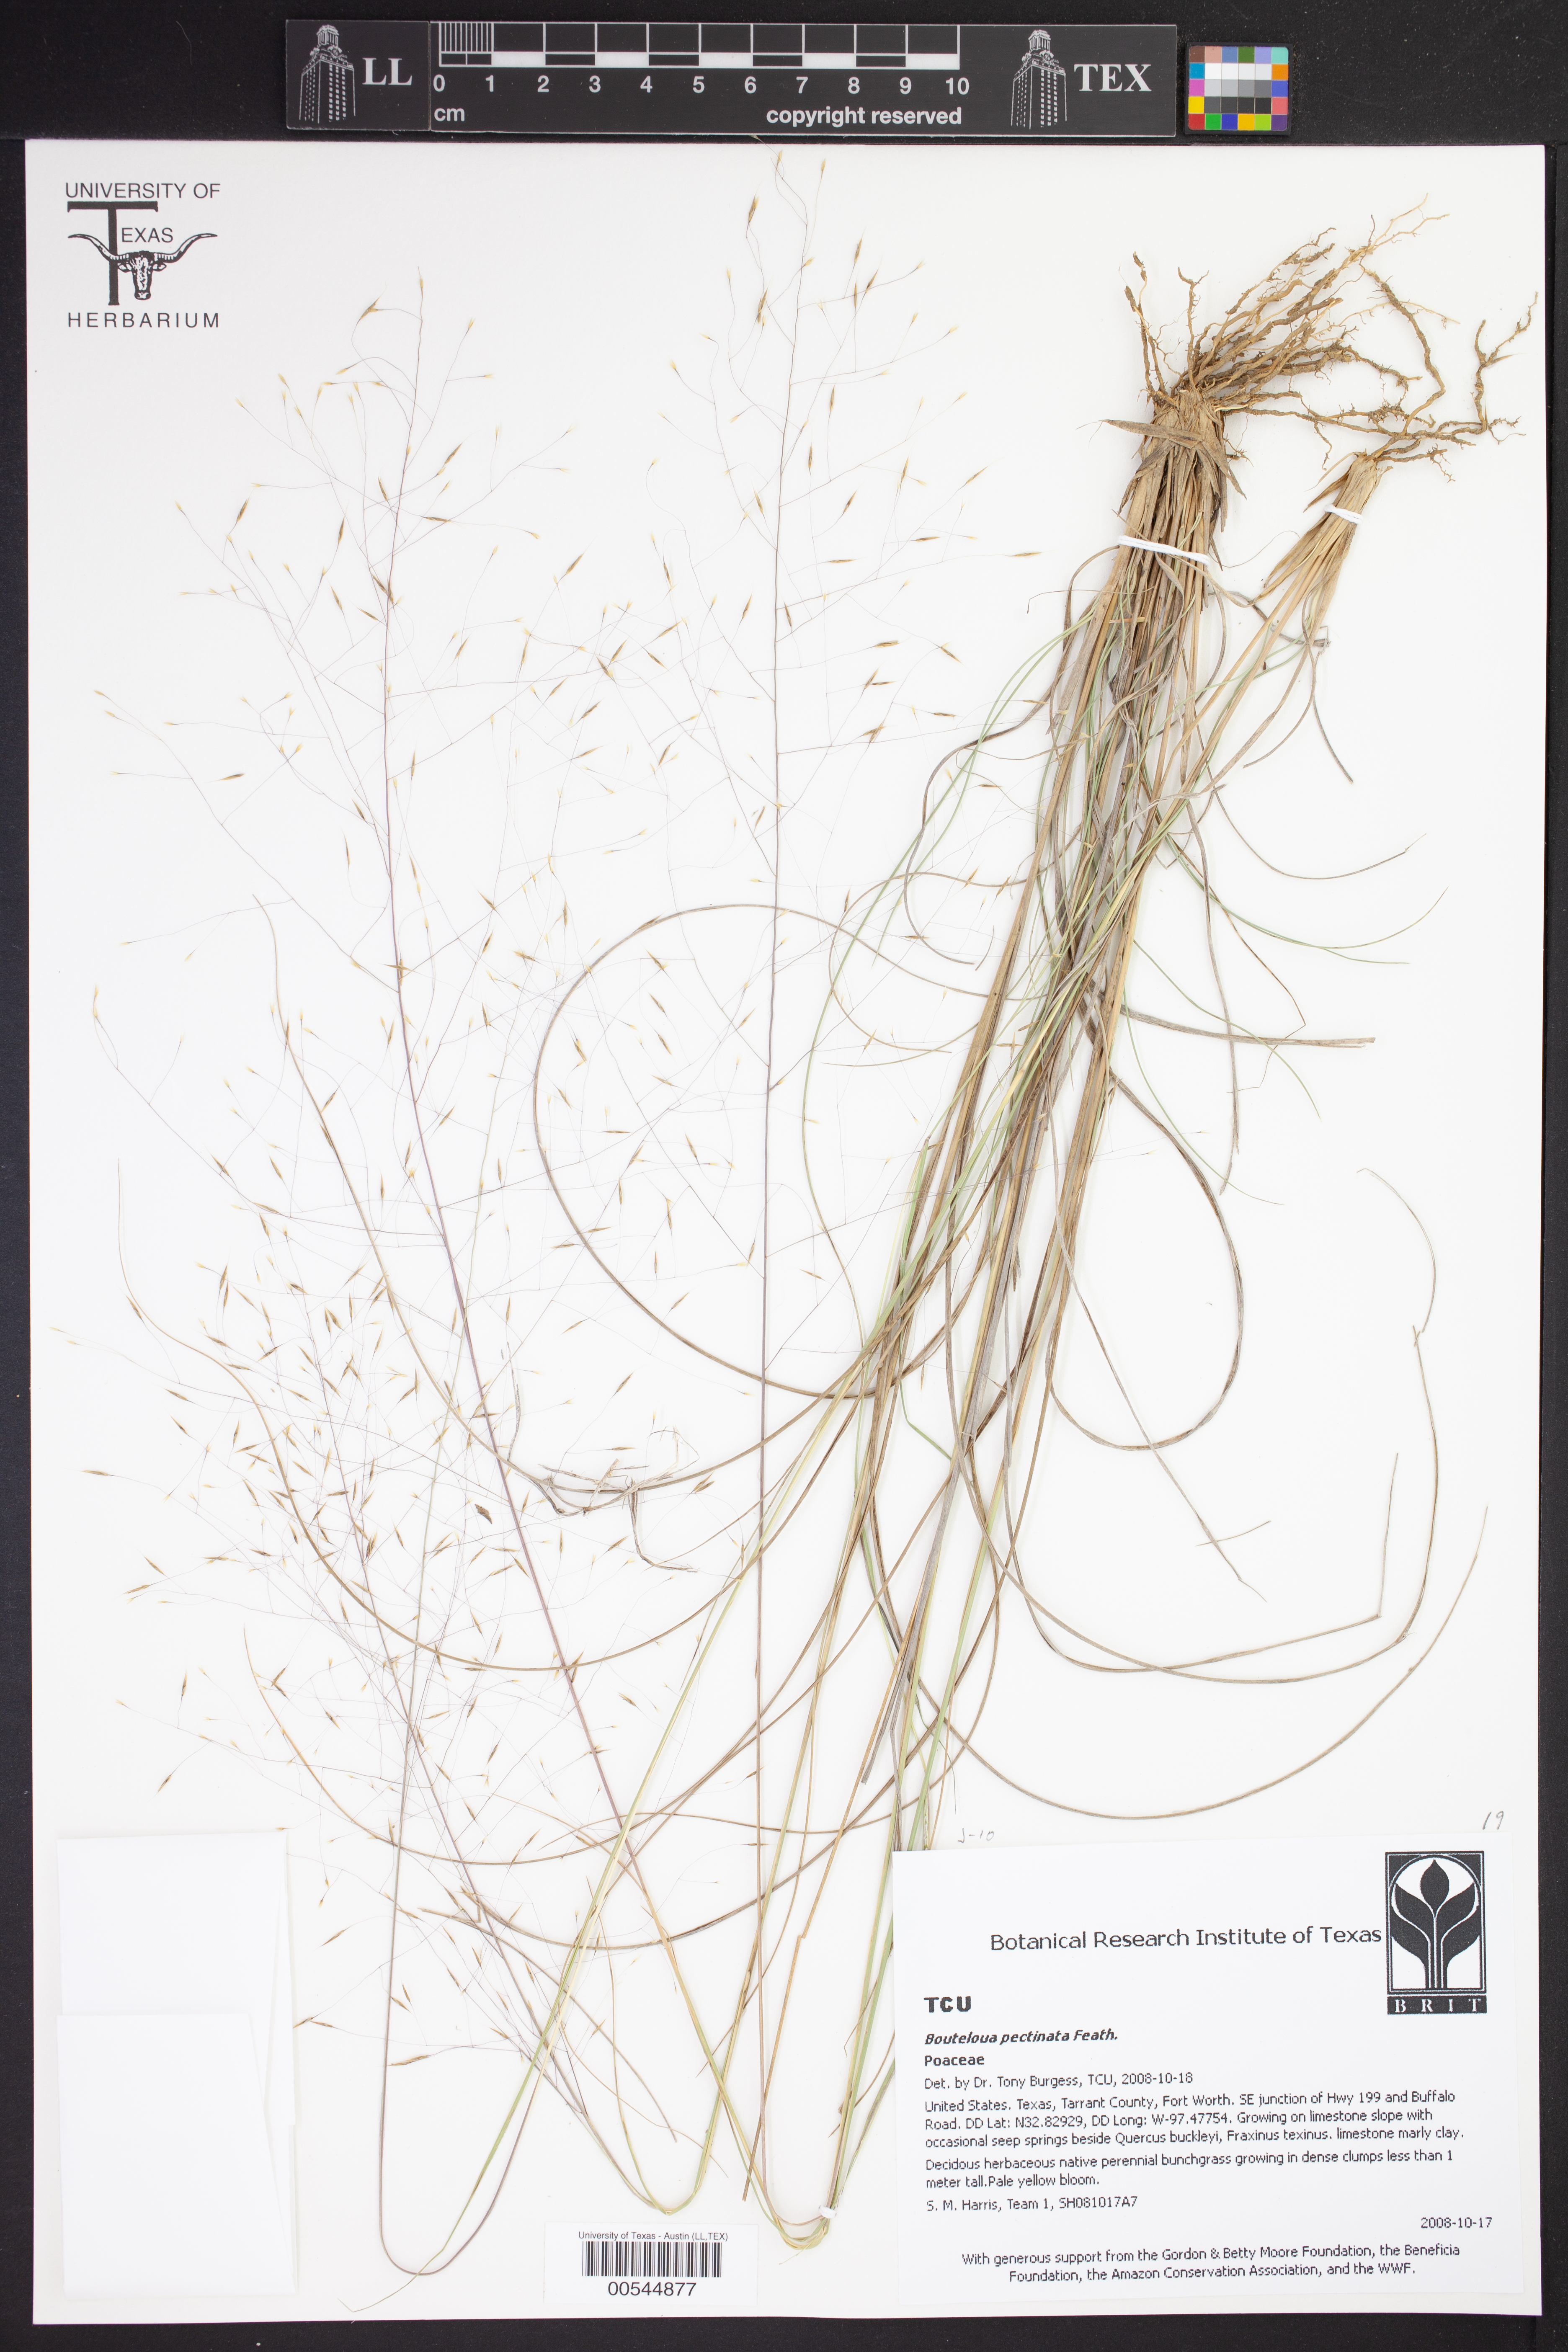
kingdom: Plantae
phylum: Tracheophyta
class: Liliopsida
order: Poales
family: Poaceae
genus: Bouteloua
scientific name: Bouteloua pectinata
